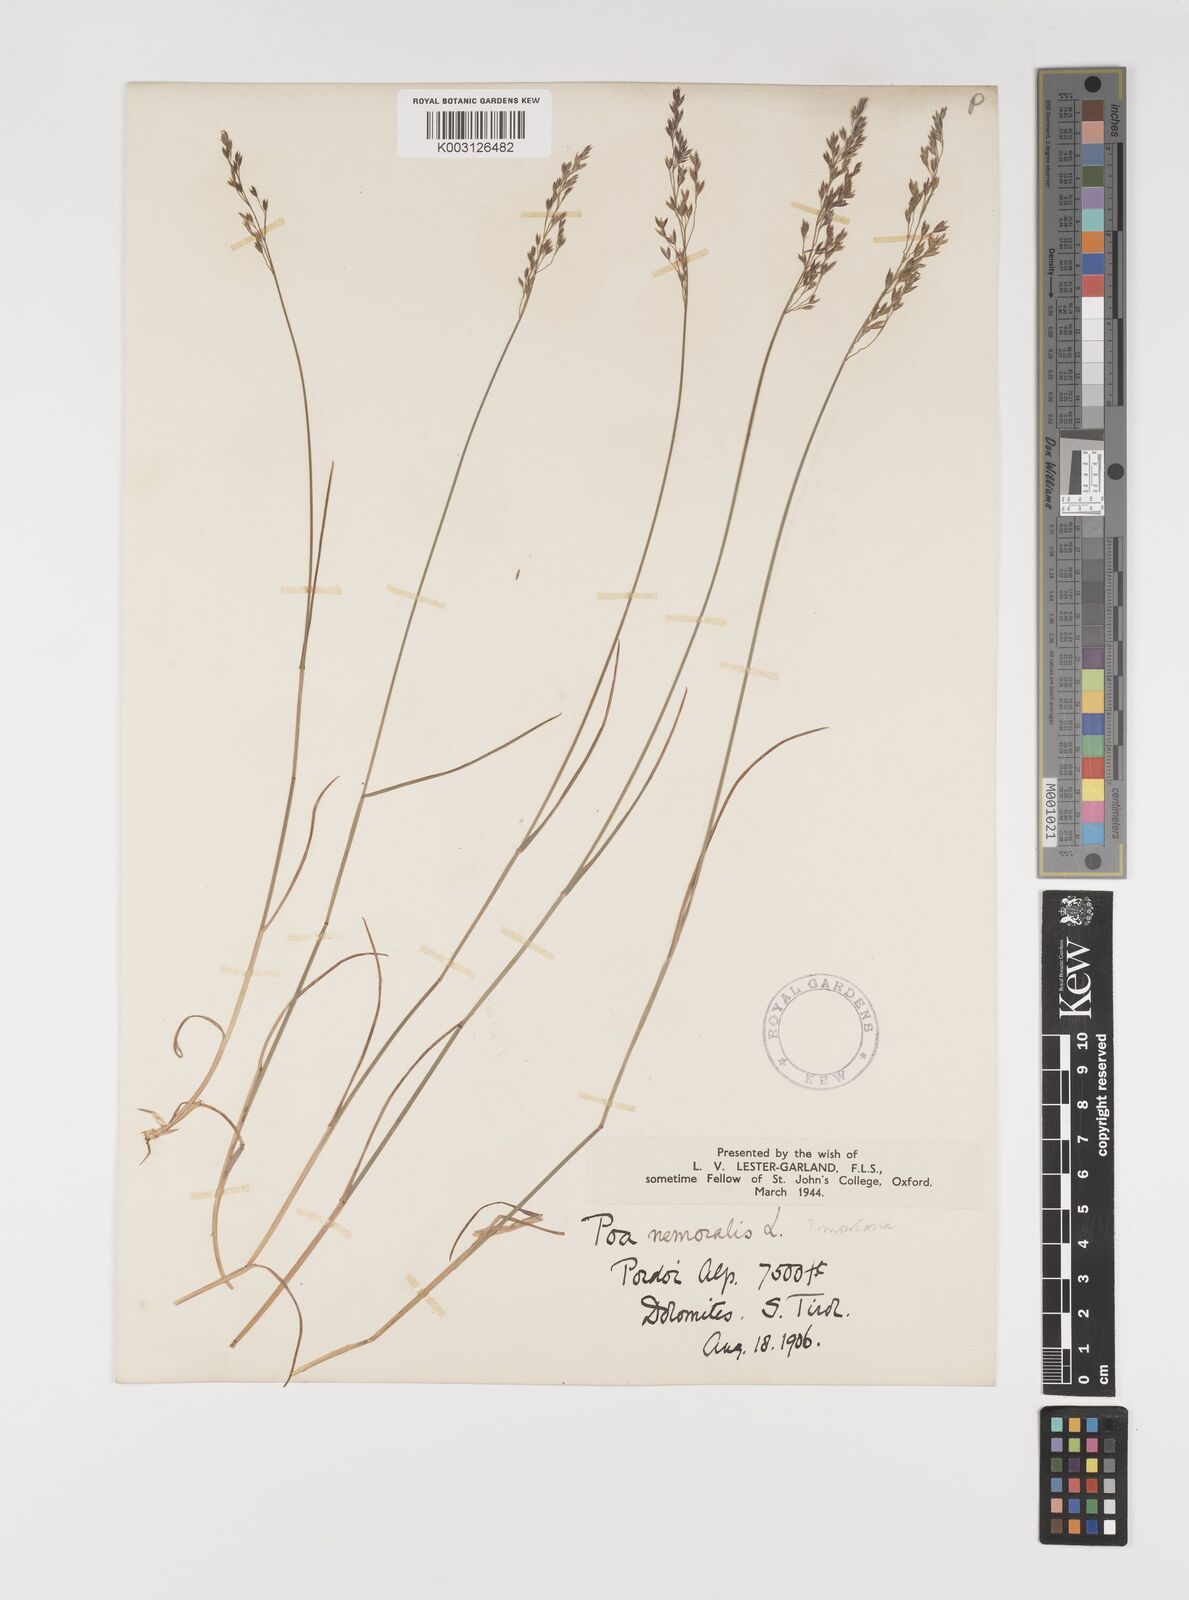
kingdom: Plantae
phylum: Tracheophyta
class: Liliopsida
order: Poales
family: Poaceae
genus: Poa
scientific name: Poa
